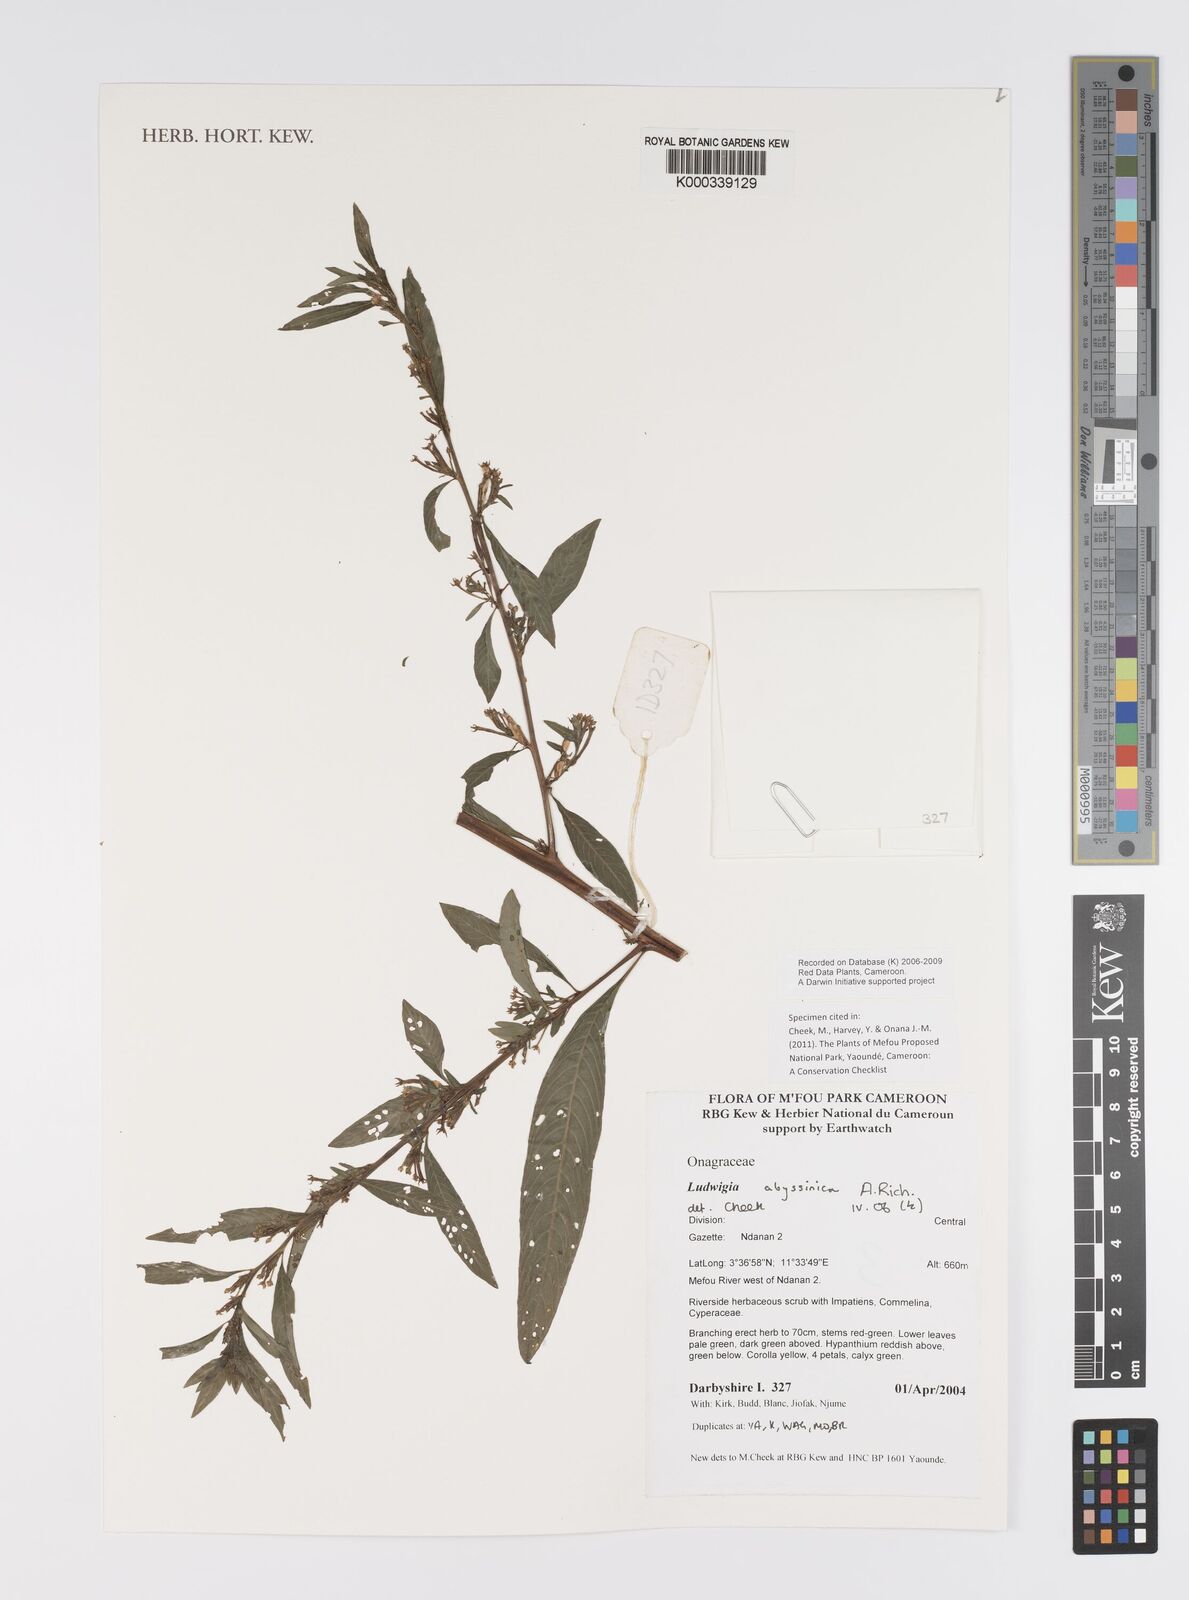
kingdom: Plantae
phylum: Tracheophyta
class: Magnoliopsida
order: Myrtales
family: Onagraceae
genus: Ludwigia
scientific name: Ludwigia abyssinica
